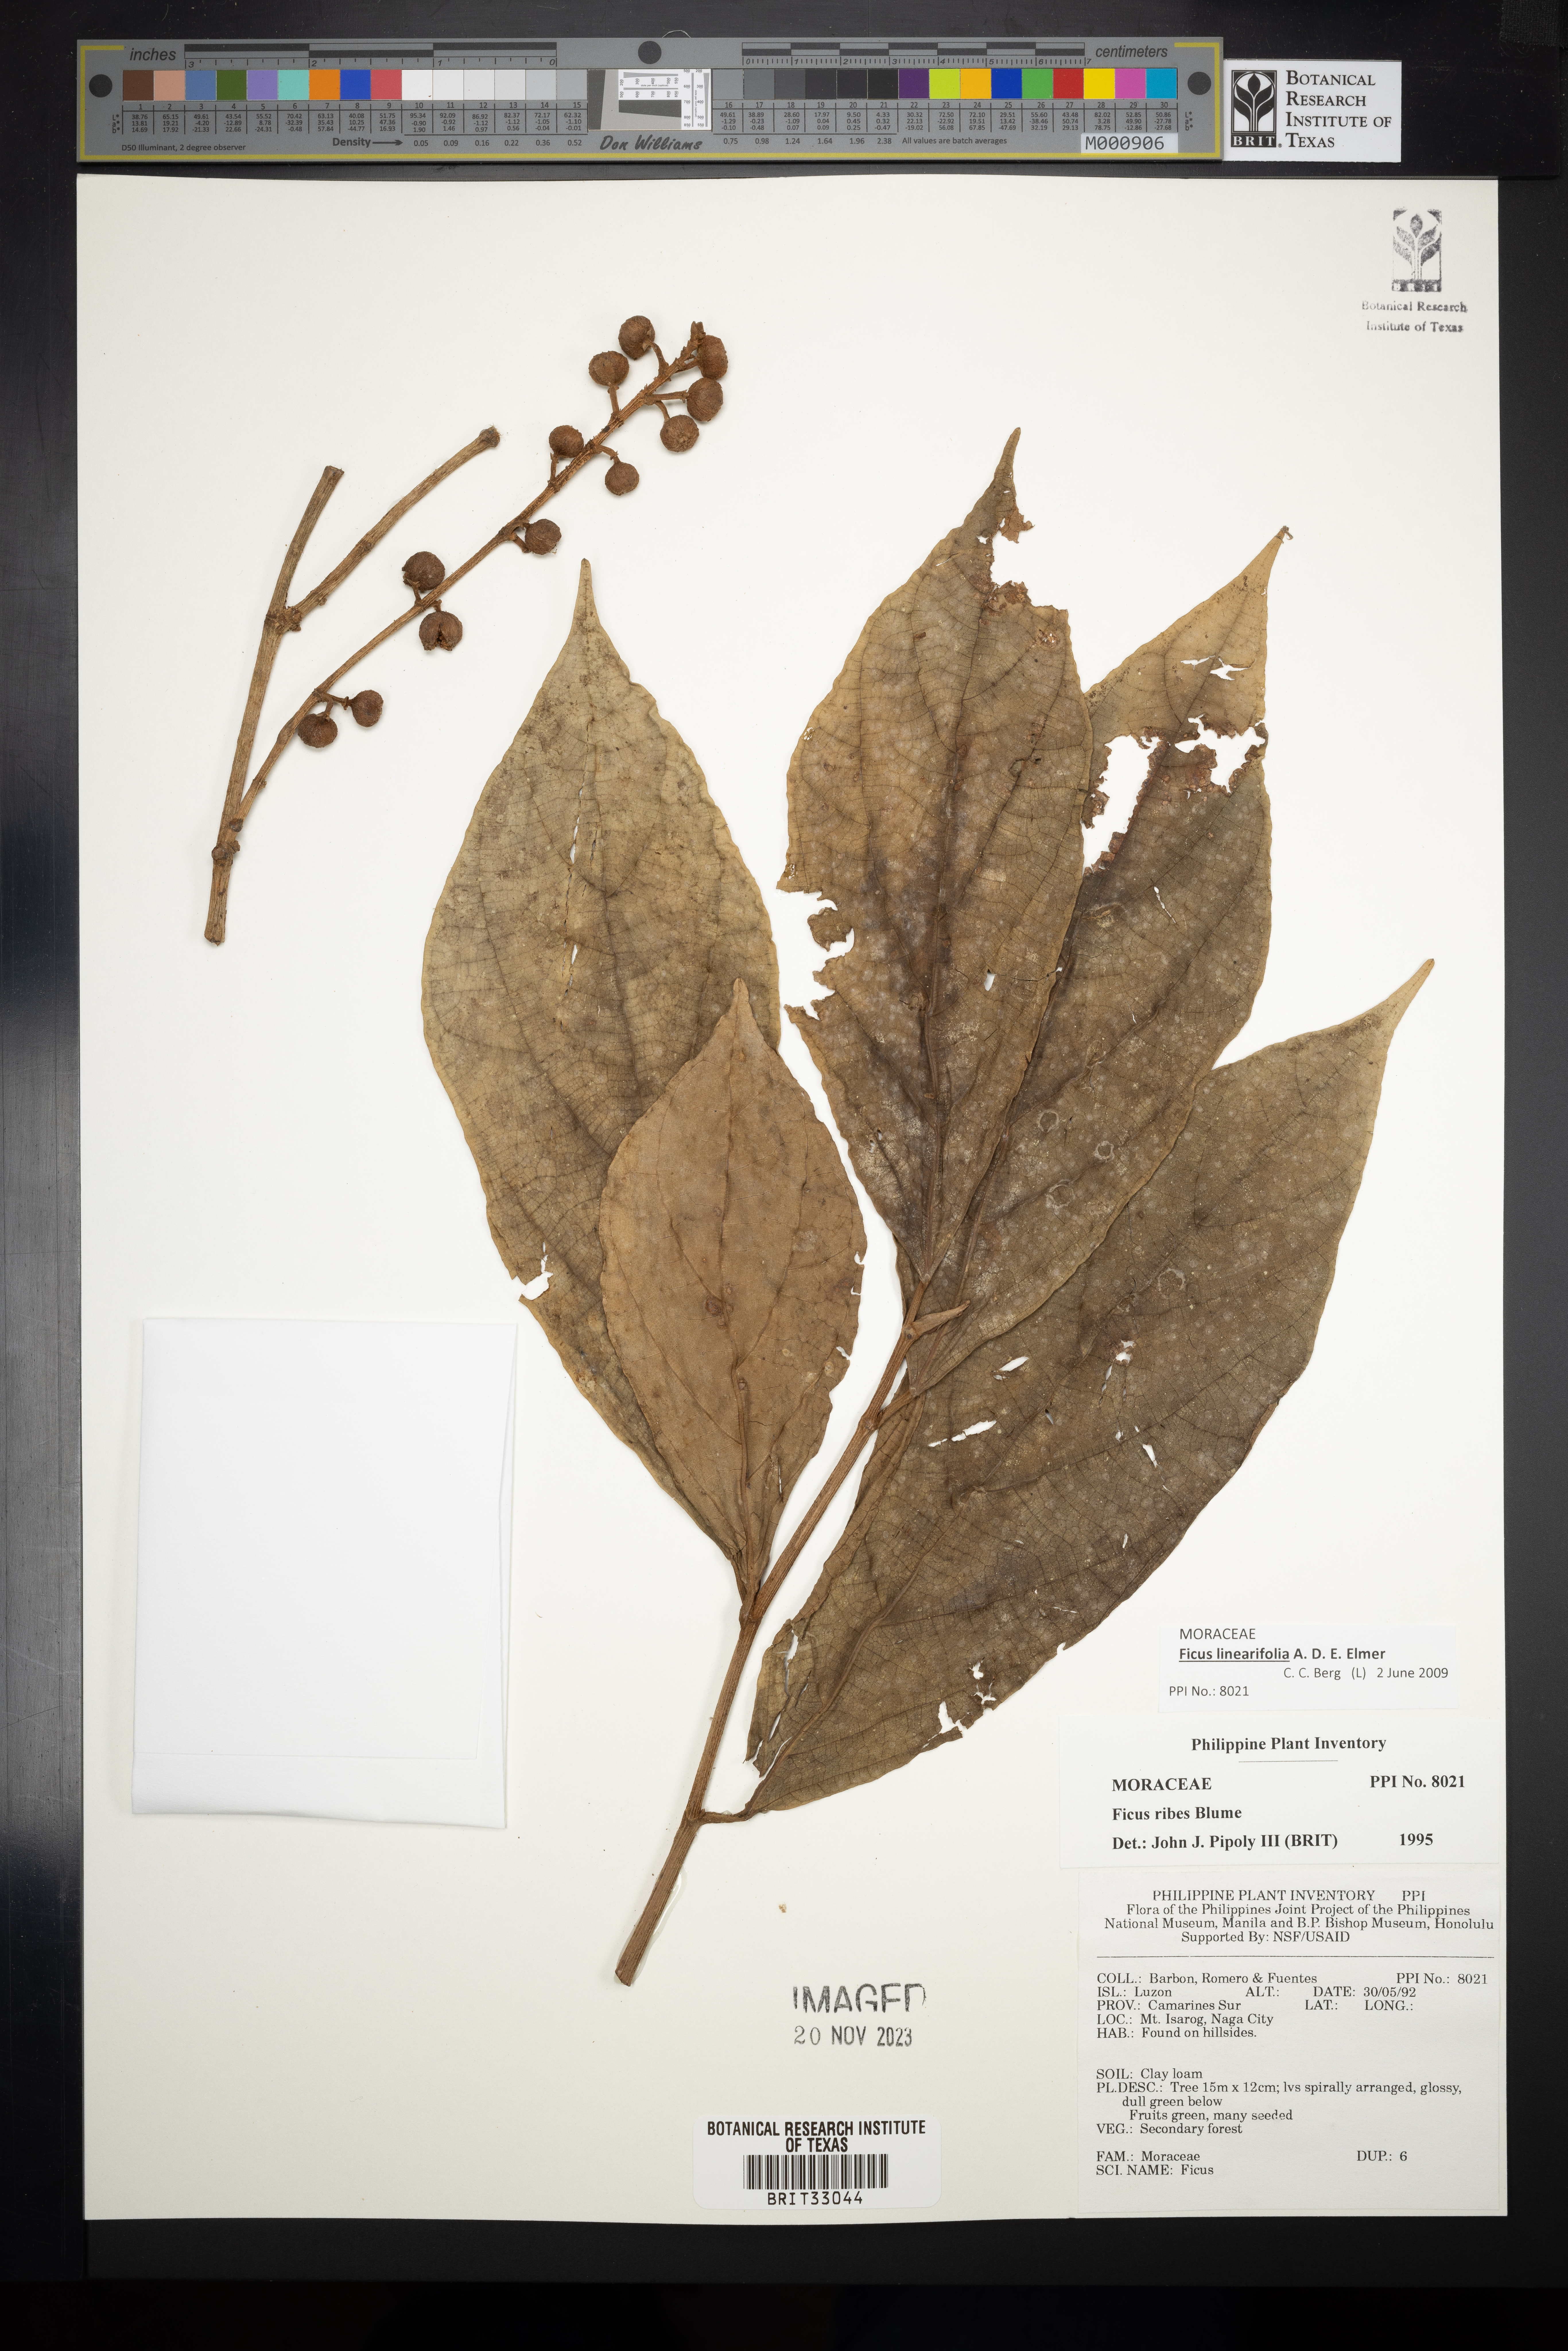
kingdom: Plantae
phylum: Tracheophyta
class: Magnoliopsida
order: Rosales
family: Moraceae
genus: Ficus
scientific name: Ficus ribes
